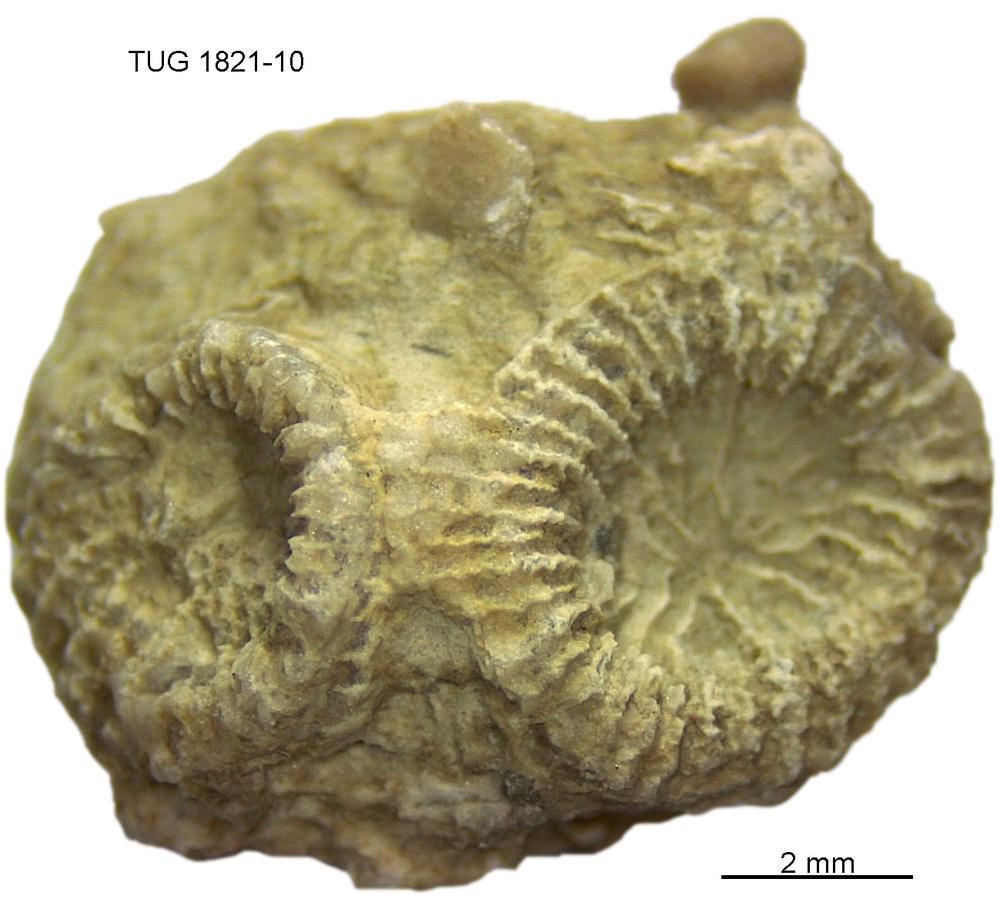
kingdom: Animalia
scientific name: Animalia
